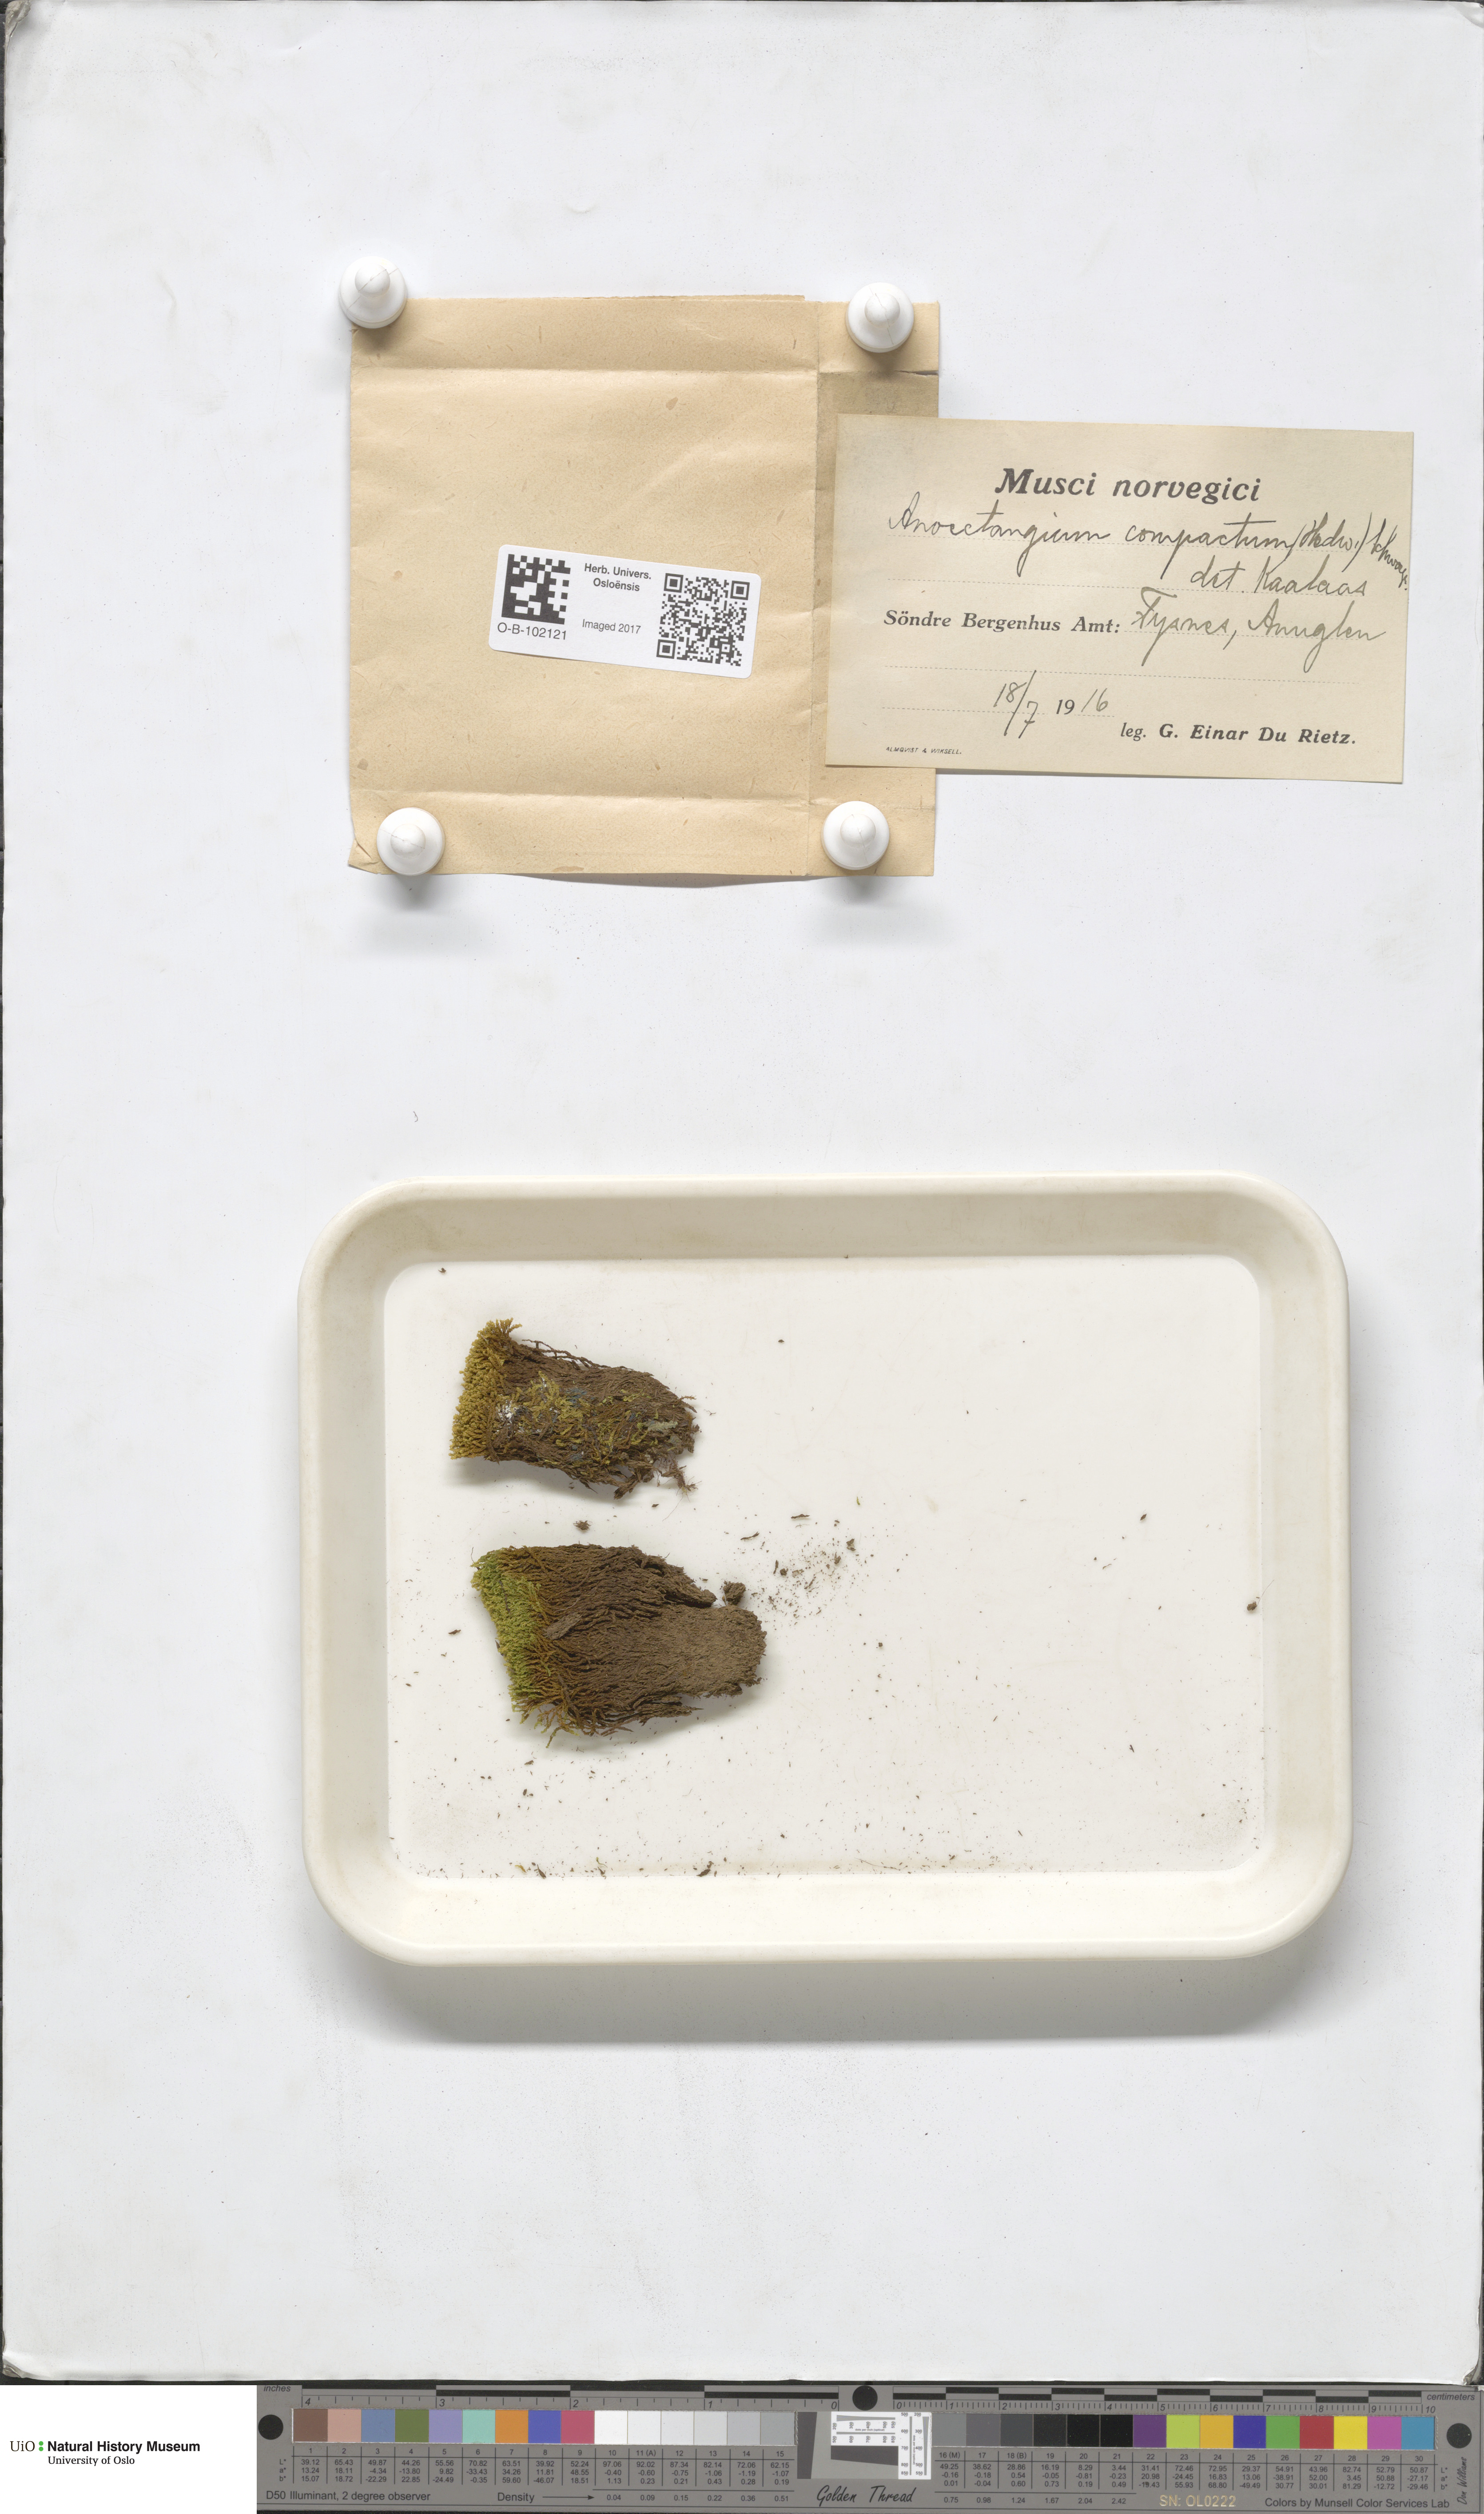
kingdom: Plantae
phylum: Bryophyta
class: Bryopsida
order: Pottiales
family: Pottiaceae
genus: Anoectangium
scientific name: Anoectangium aestivum
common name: Summer-moss
